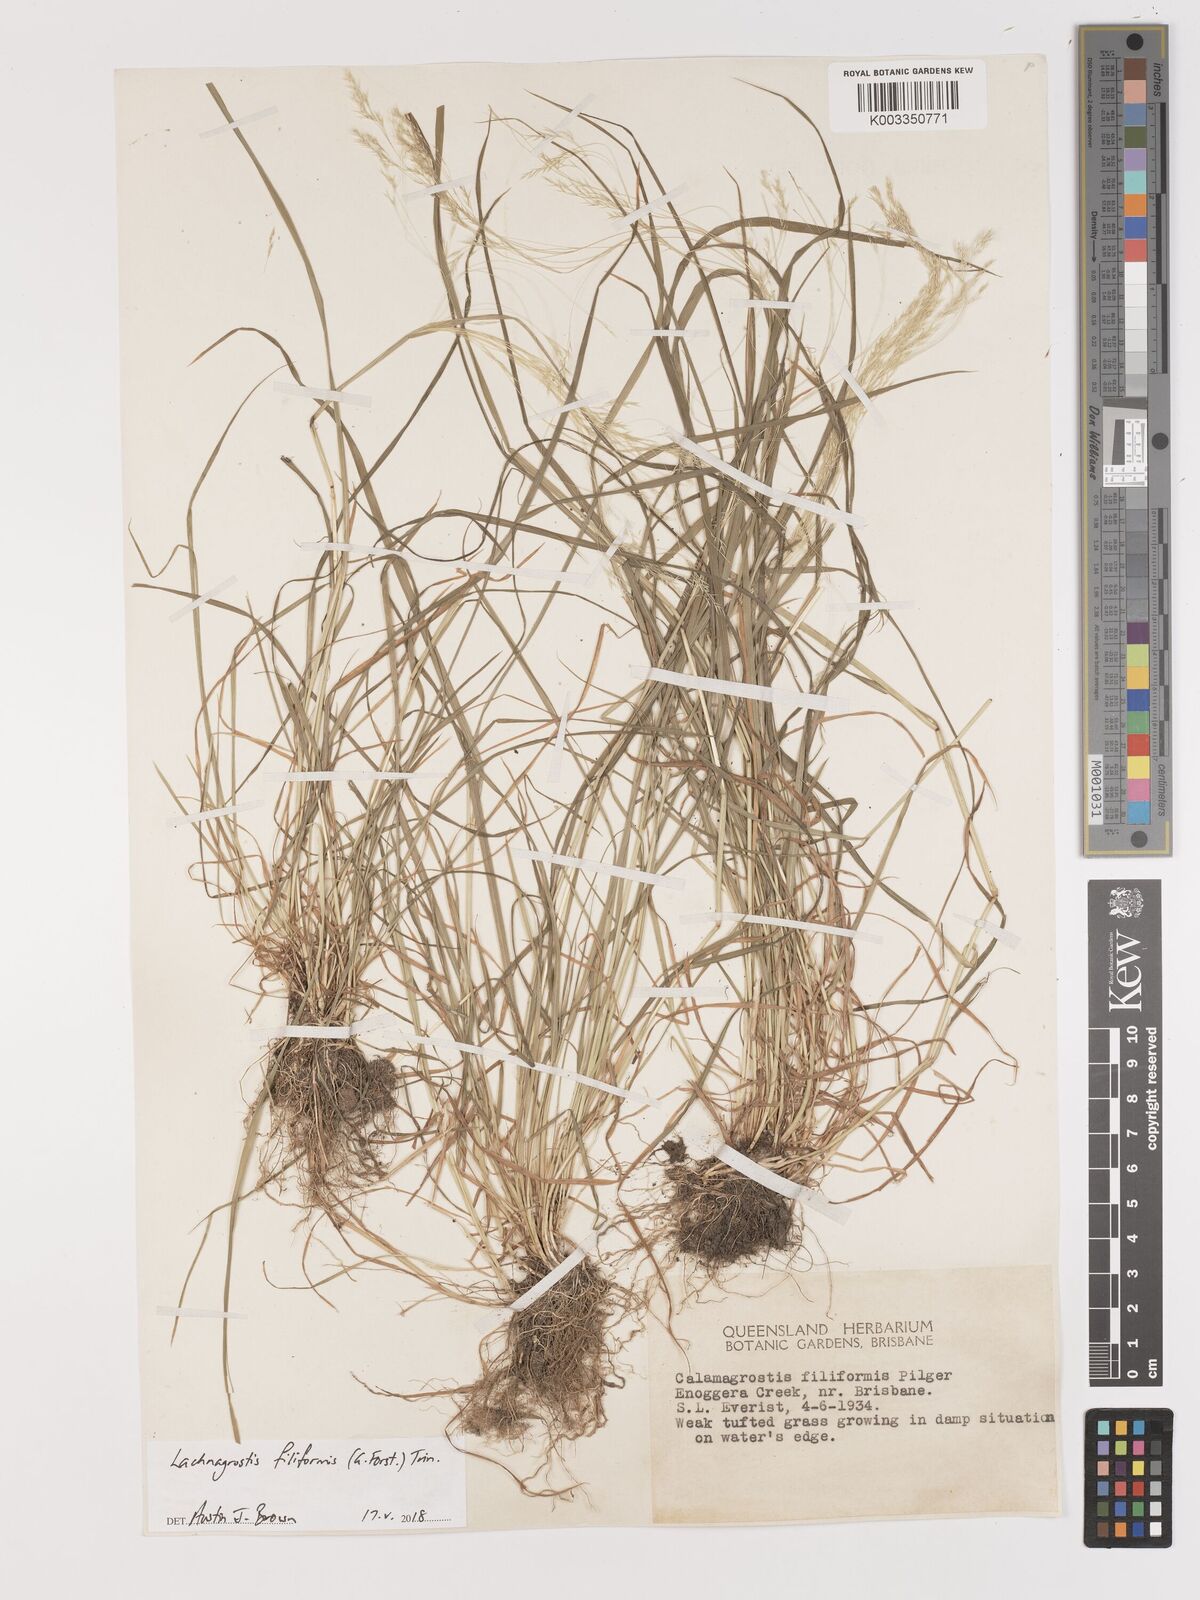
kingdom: Plantae
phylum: Tracheophyta
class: Liliopsida
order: Poales
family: Poaceae
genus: Lachnagrostis
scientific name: Lachnagrostis filiformis
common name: Bentgrass
